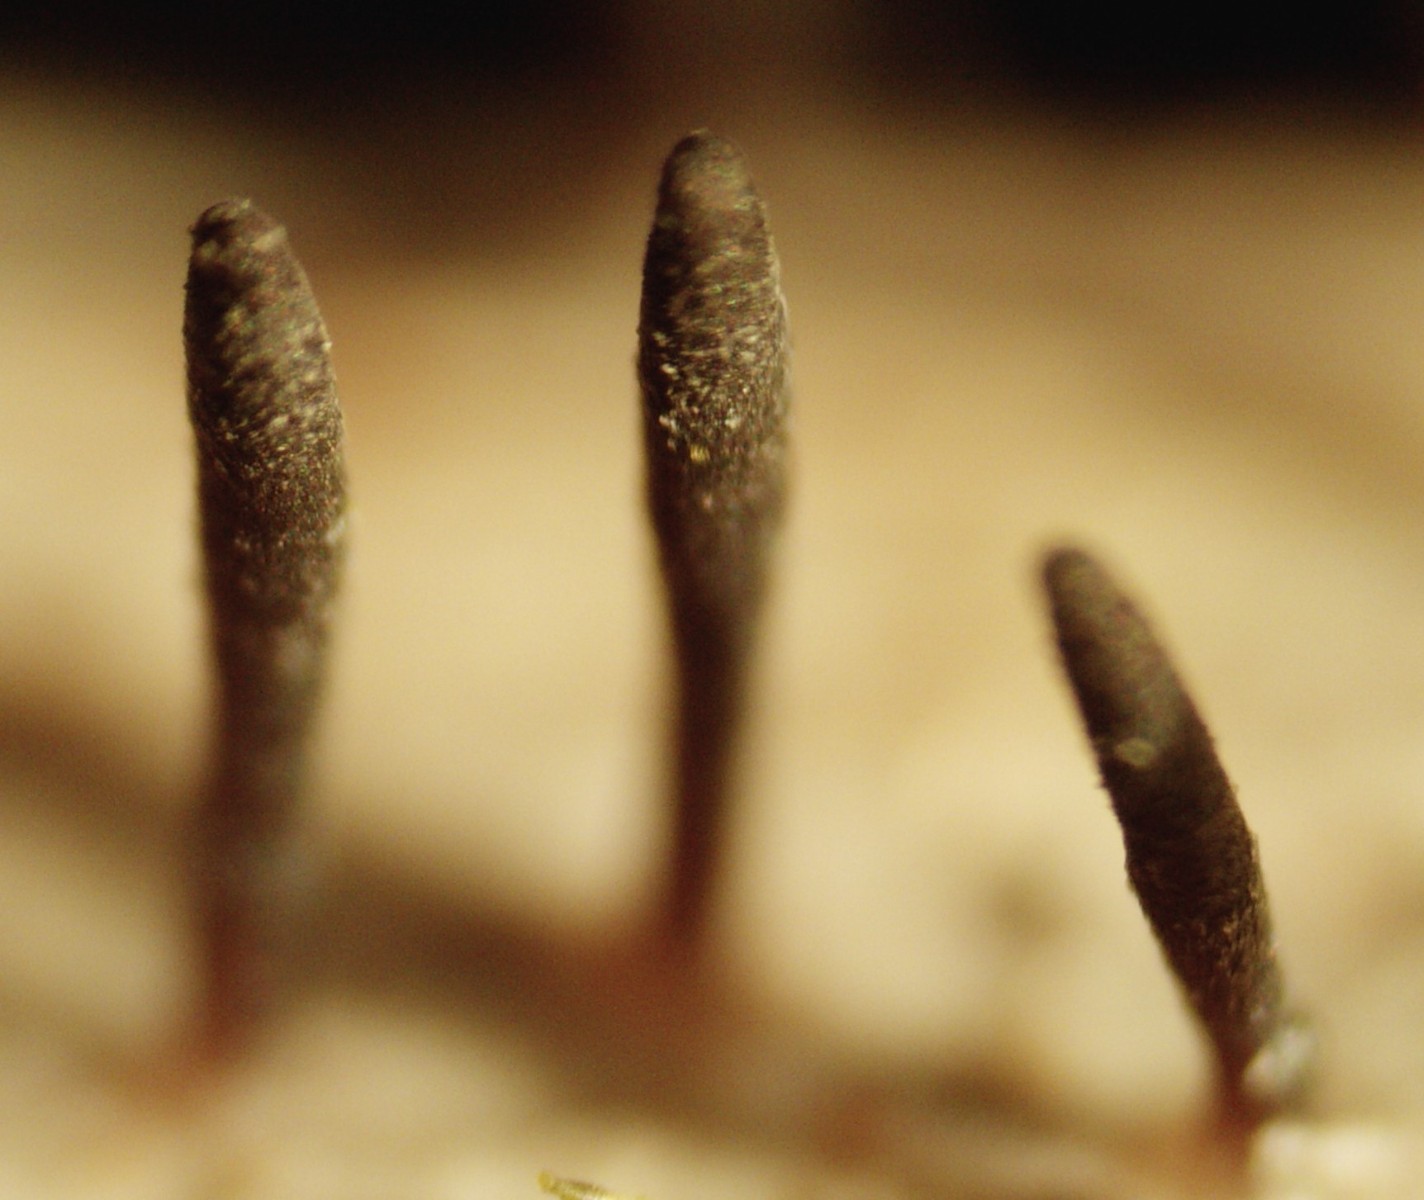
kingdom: Fungi
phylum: Ascomycota
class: Dothideomycetes
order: Acrospermales
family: Acrospermaceae
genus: Acrospermum
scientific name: Acrospermum compressum
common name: nælde-stængeltunge
